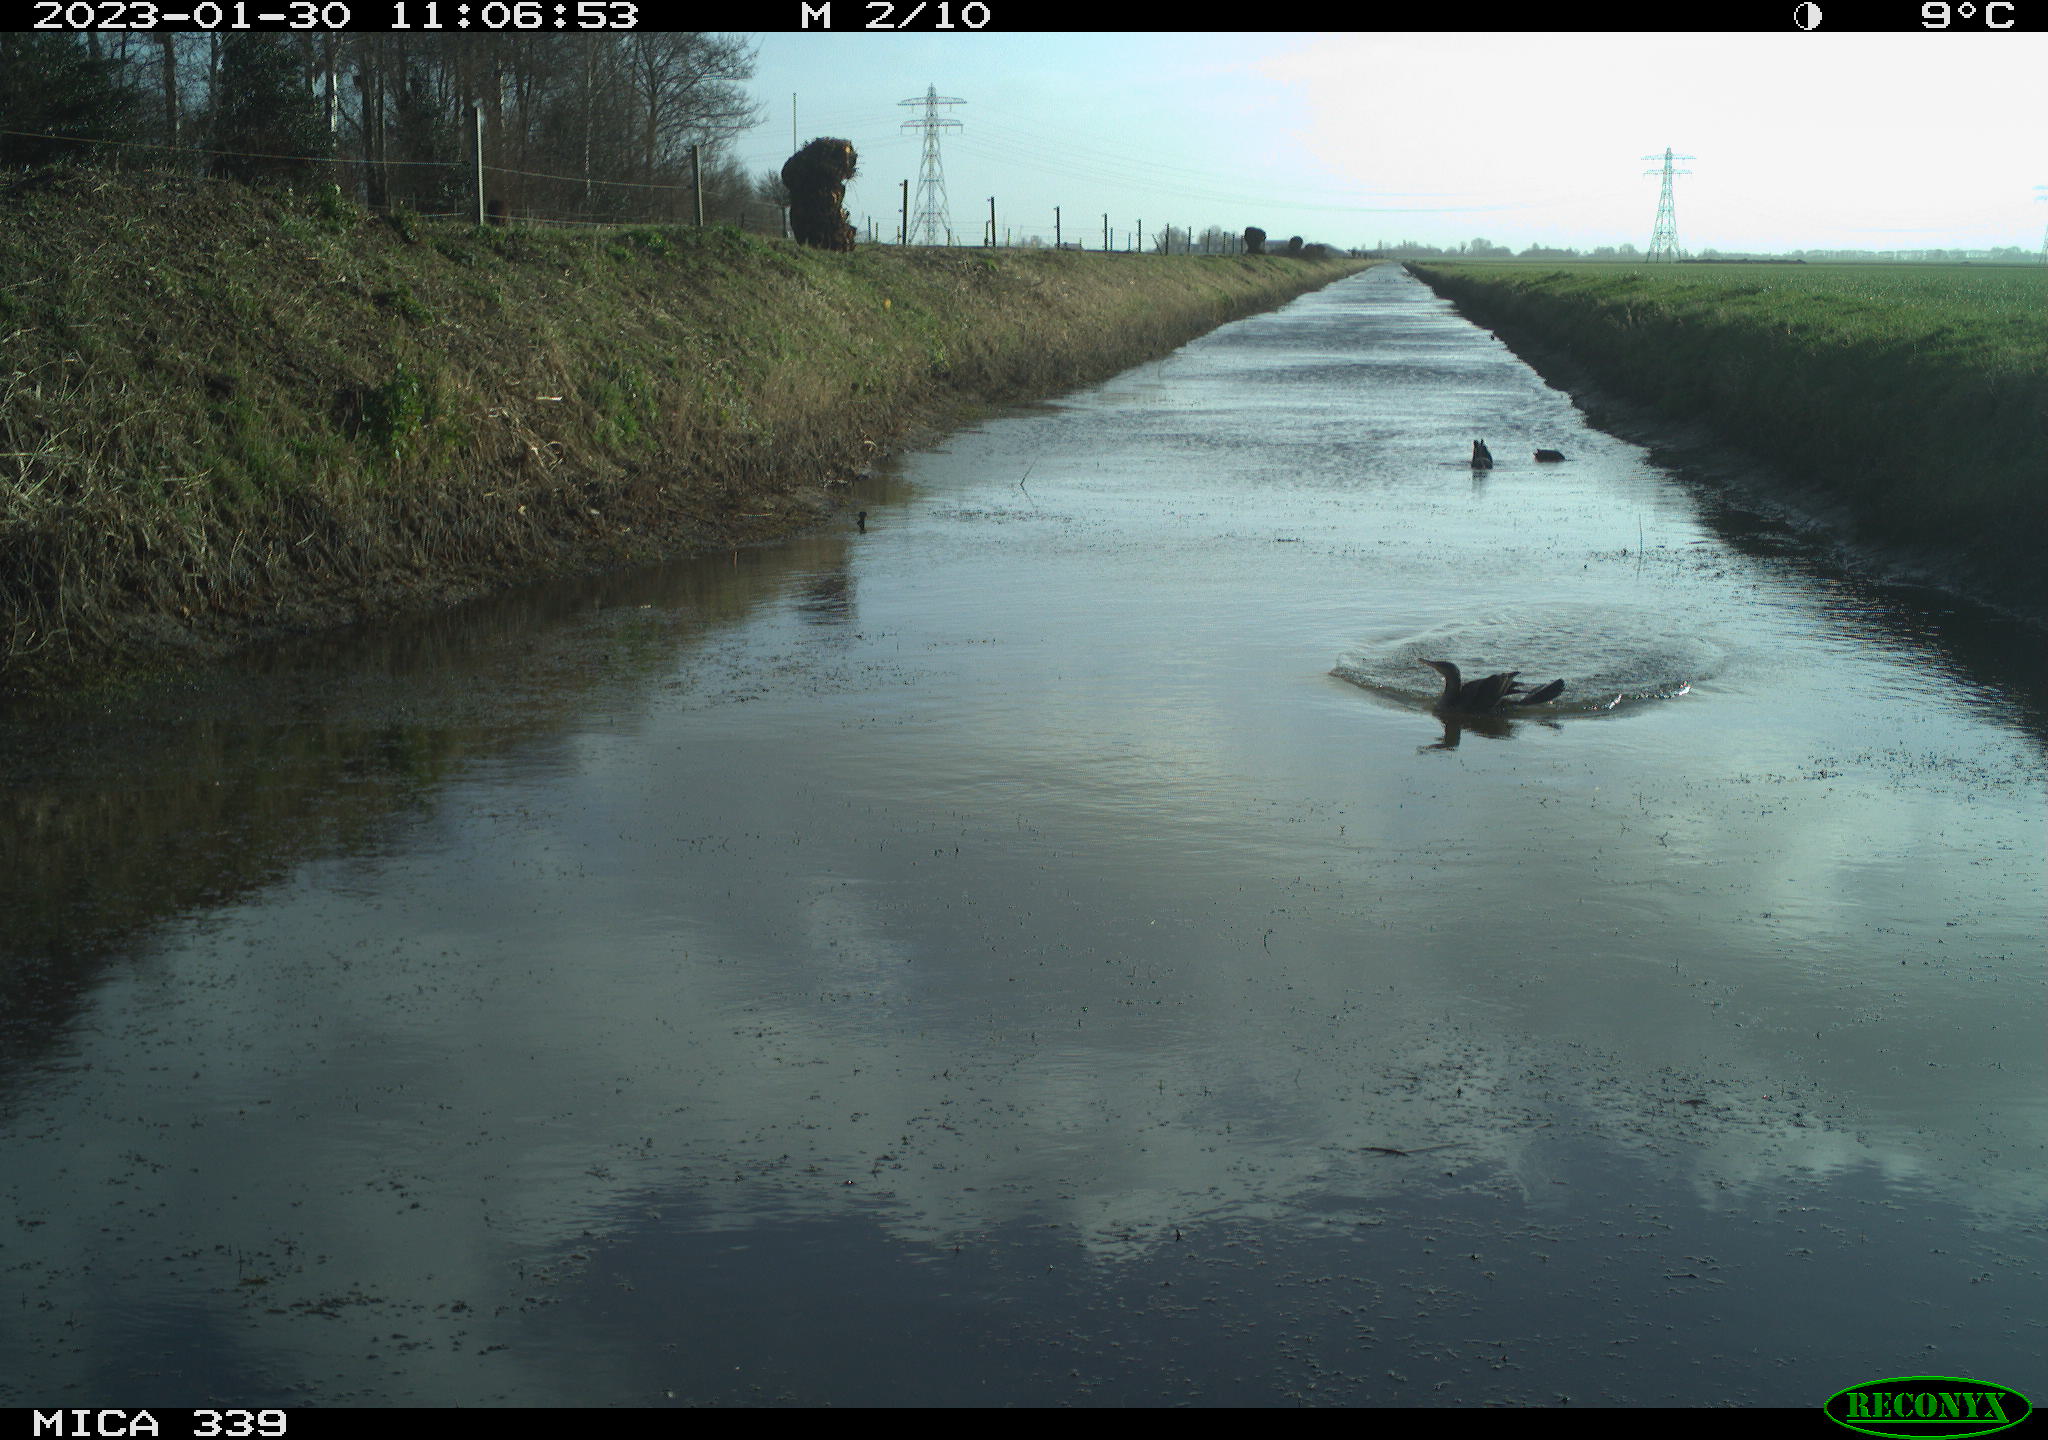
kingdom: Animalia
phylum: Chordata
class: Aves
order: Suliformes
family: Phalacrocoracidae
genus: Phalacrocorax
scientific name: Phalacrocorax carbo
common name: Great cormorant
